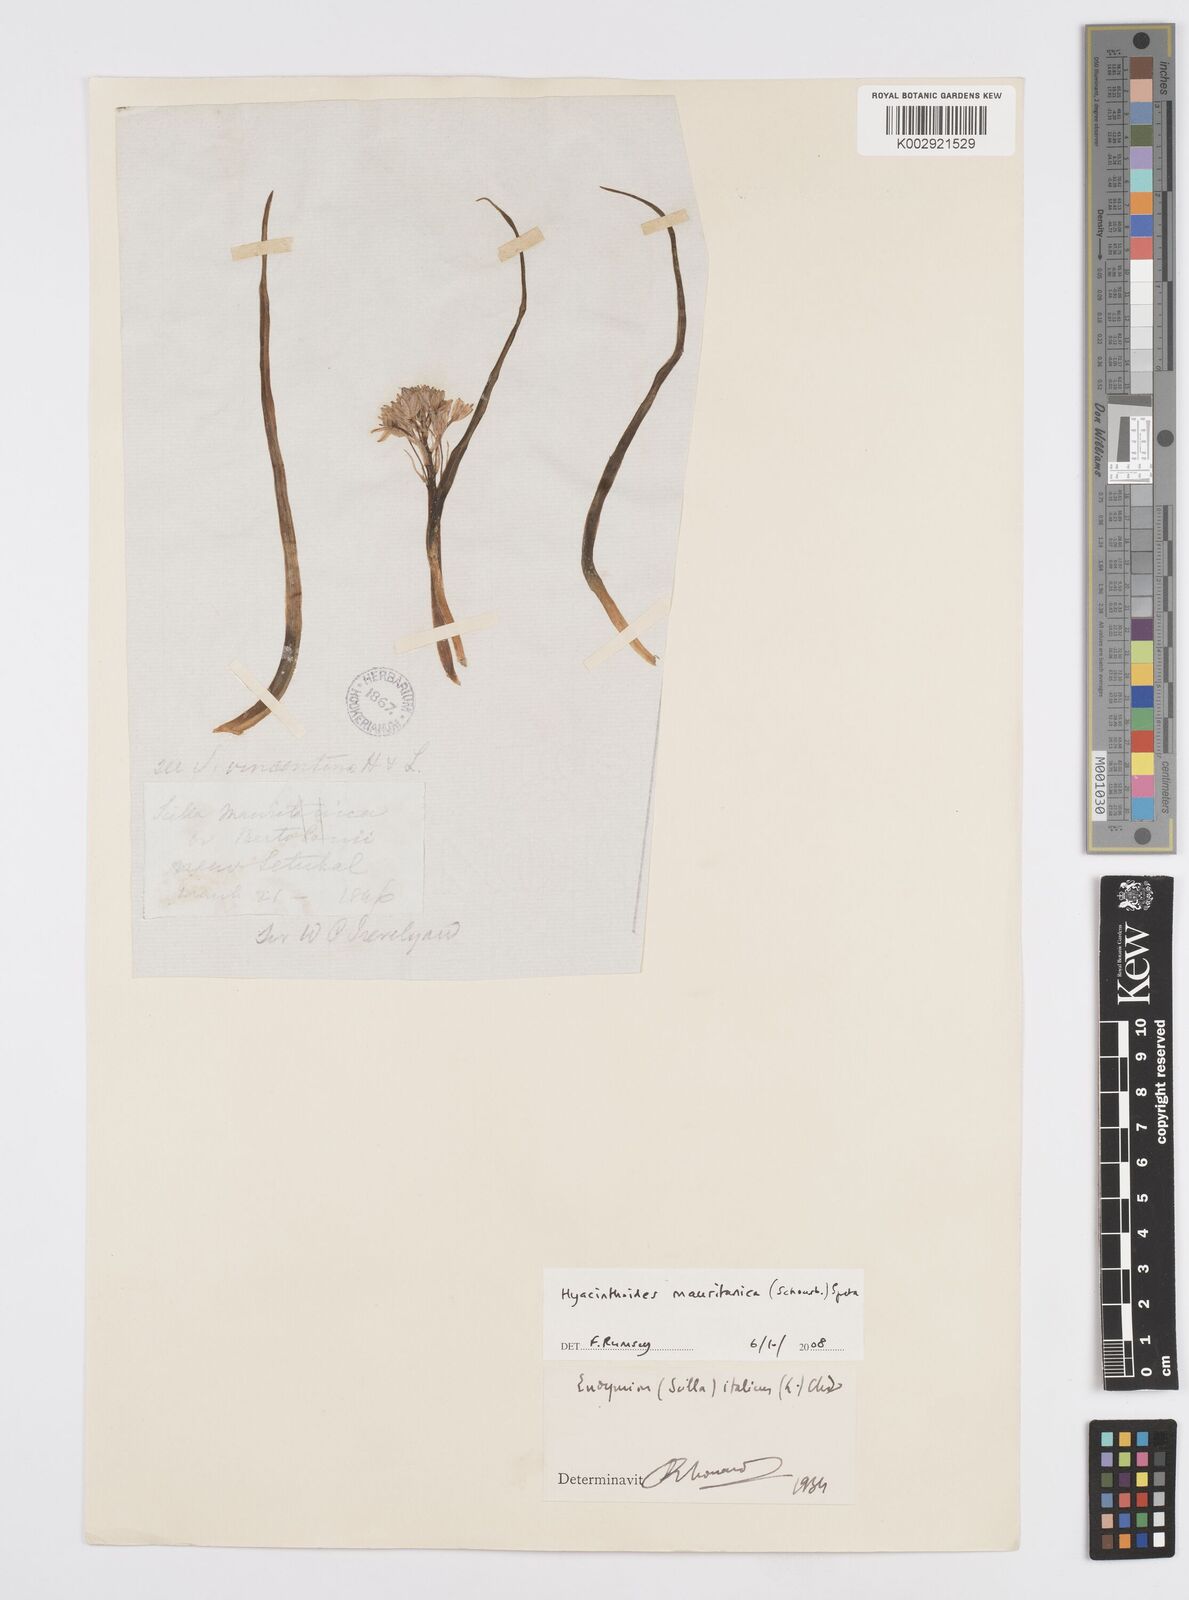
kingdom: Plantae
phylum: Tracheophyta
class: Liliopsida
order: Asparagales
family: Asparagaceae
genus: Hyacinthoides
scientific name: Hyacinthoides mauritanica
